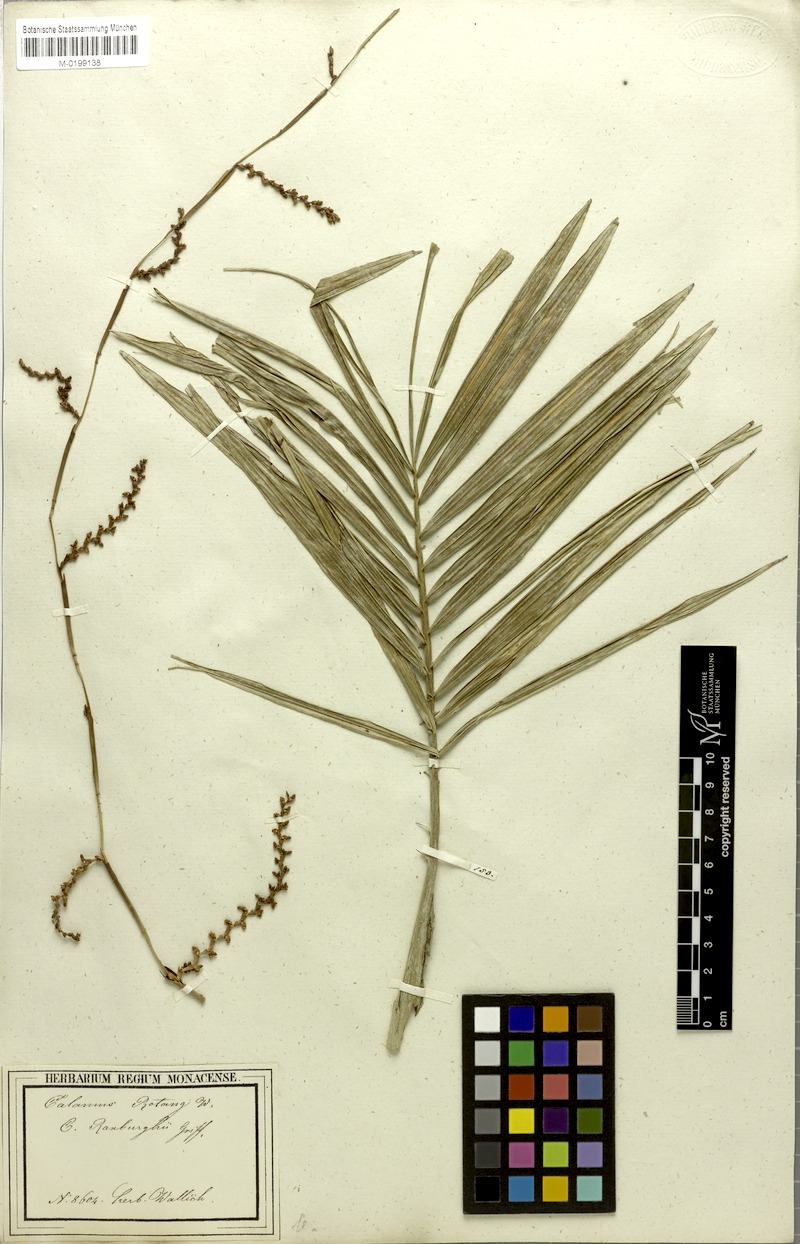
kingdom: Plantae
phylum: Tracheophyta
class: Liliopsida
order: Arecales
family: Arecaceae
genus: Calamus
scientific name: Calamus rotang
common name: Rattan cane
